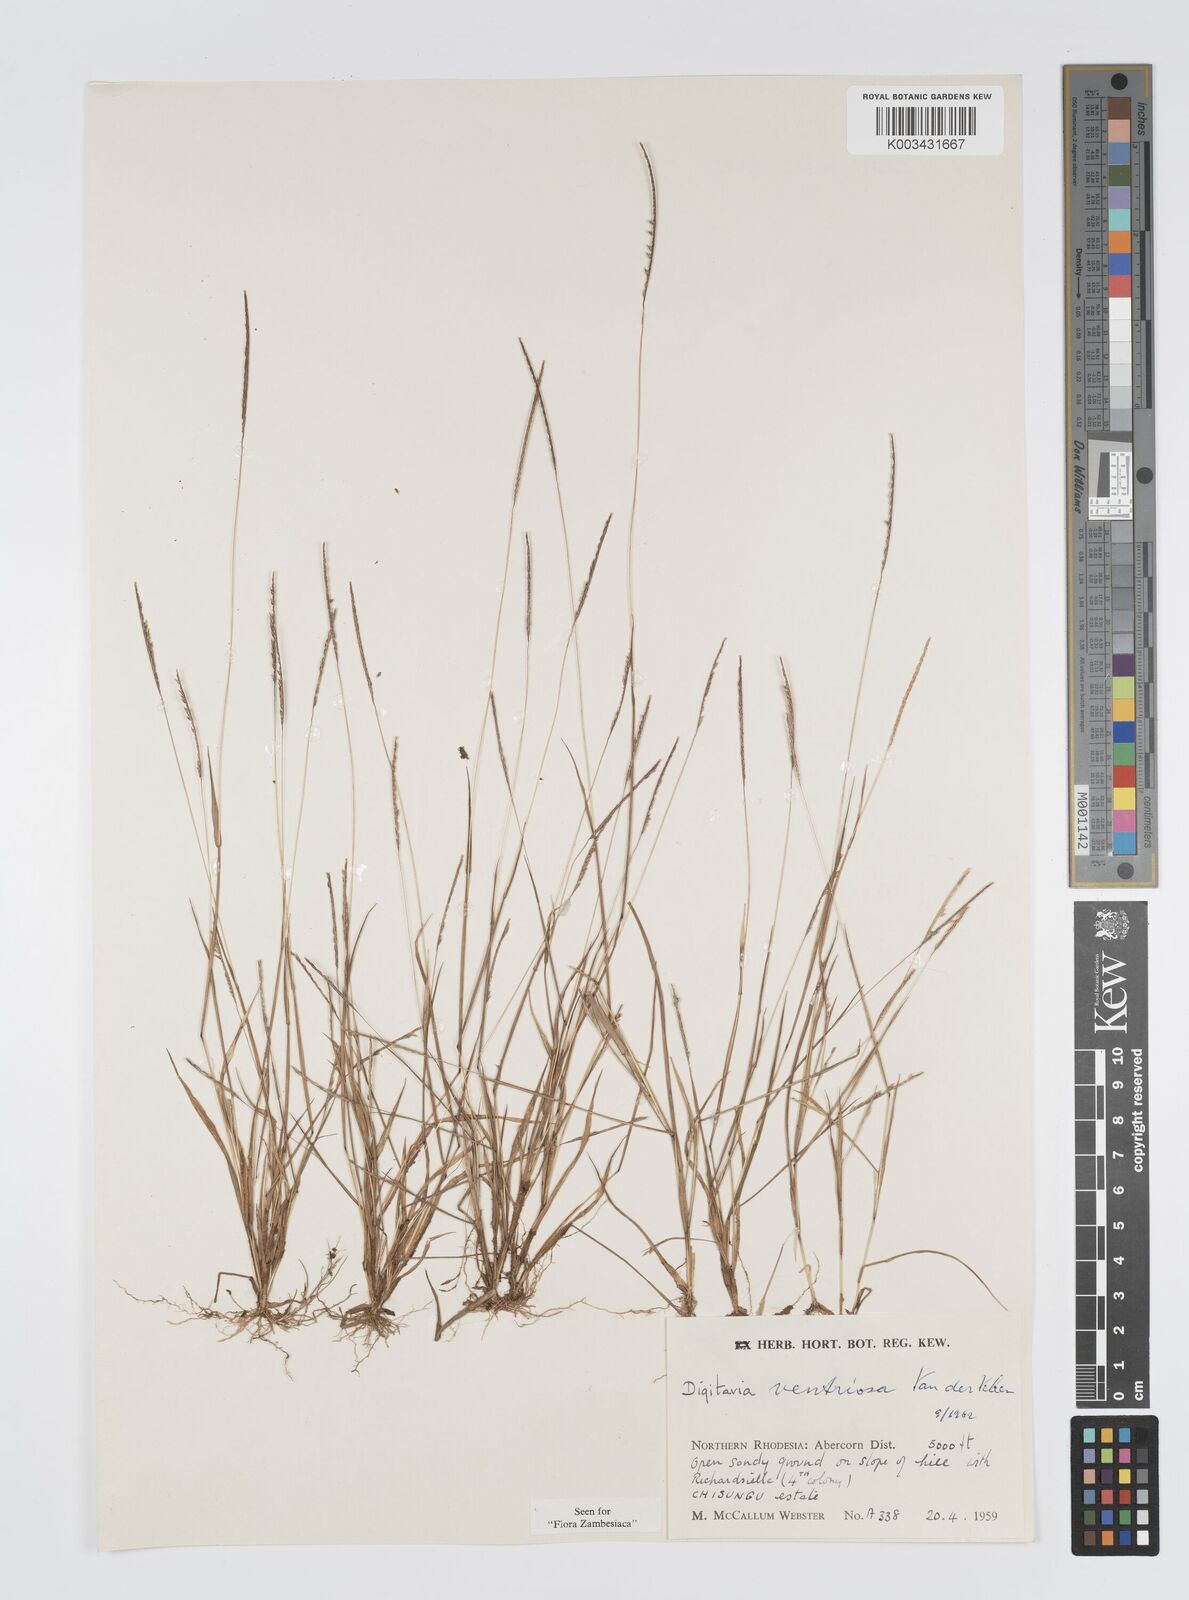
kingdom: Plantae
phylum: Tracheophyta
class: Liliopsida
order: Poales
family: Poaceae
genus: Digitaria
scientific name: Digitaria ventriosa
